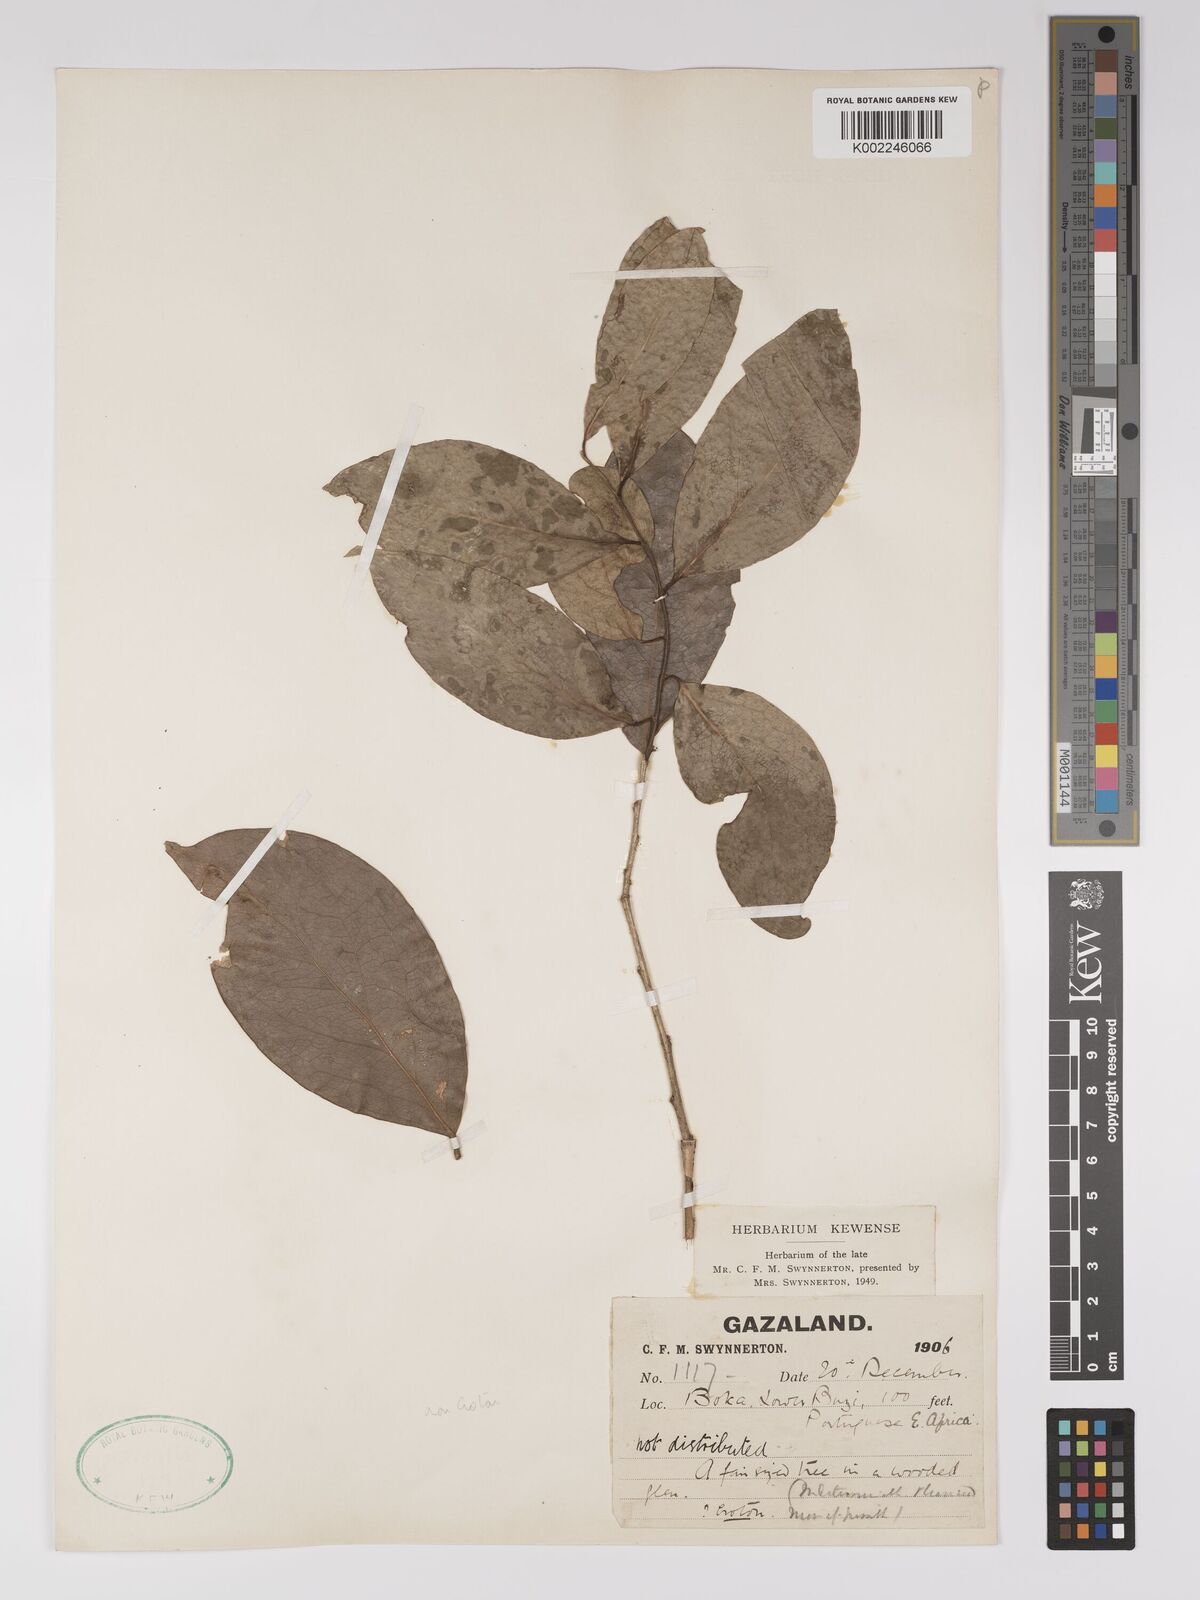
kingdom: Plantae
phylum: Tracheophyta
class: Magnoliopsida
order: Malpighiales
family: Euphorbiaceae
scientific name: Euphorbiaceae
